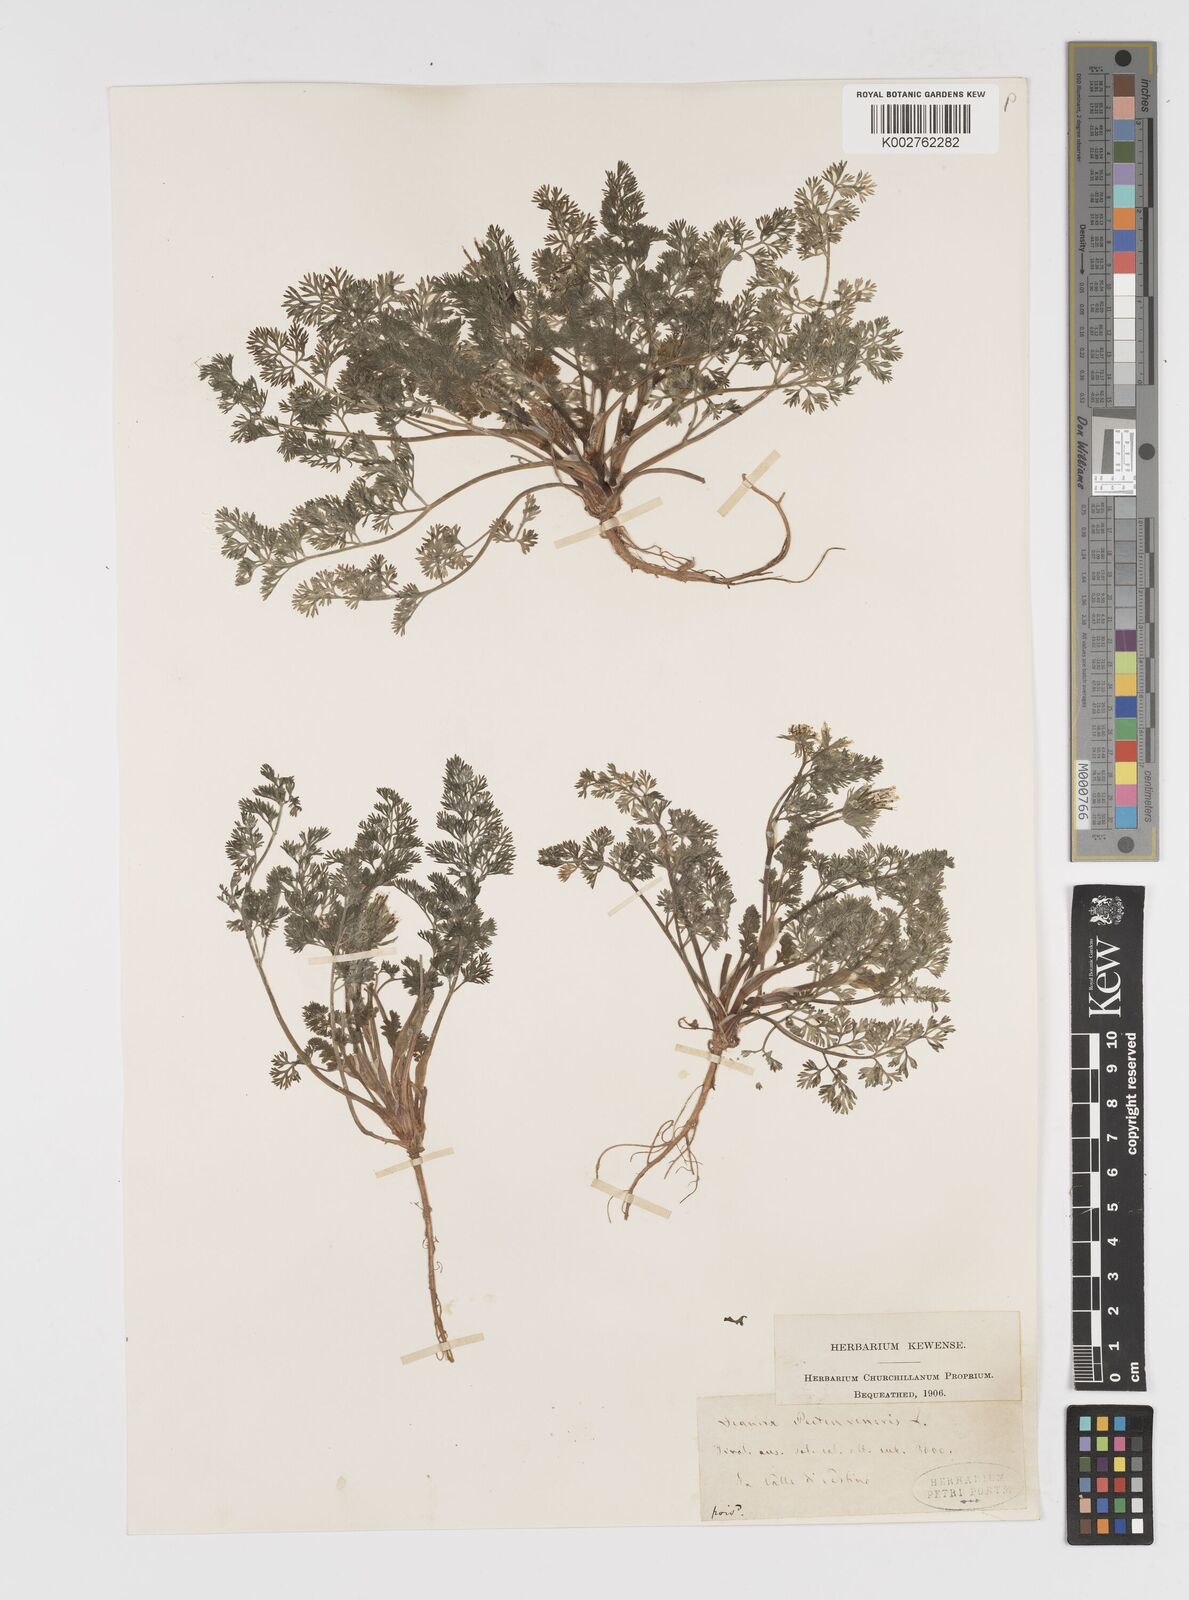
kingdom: Plantae
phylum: Tracheophyta
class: Magnoliopsida
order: Apiales
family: Apiaceae
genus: Scandix
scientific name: Scandix pecten-veneris
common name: Shepherd's-needle
